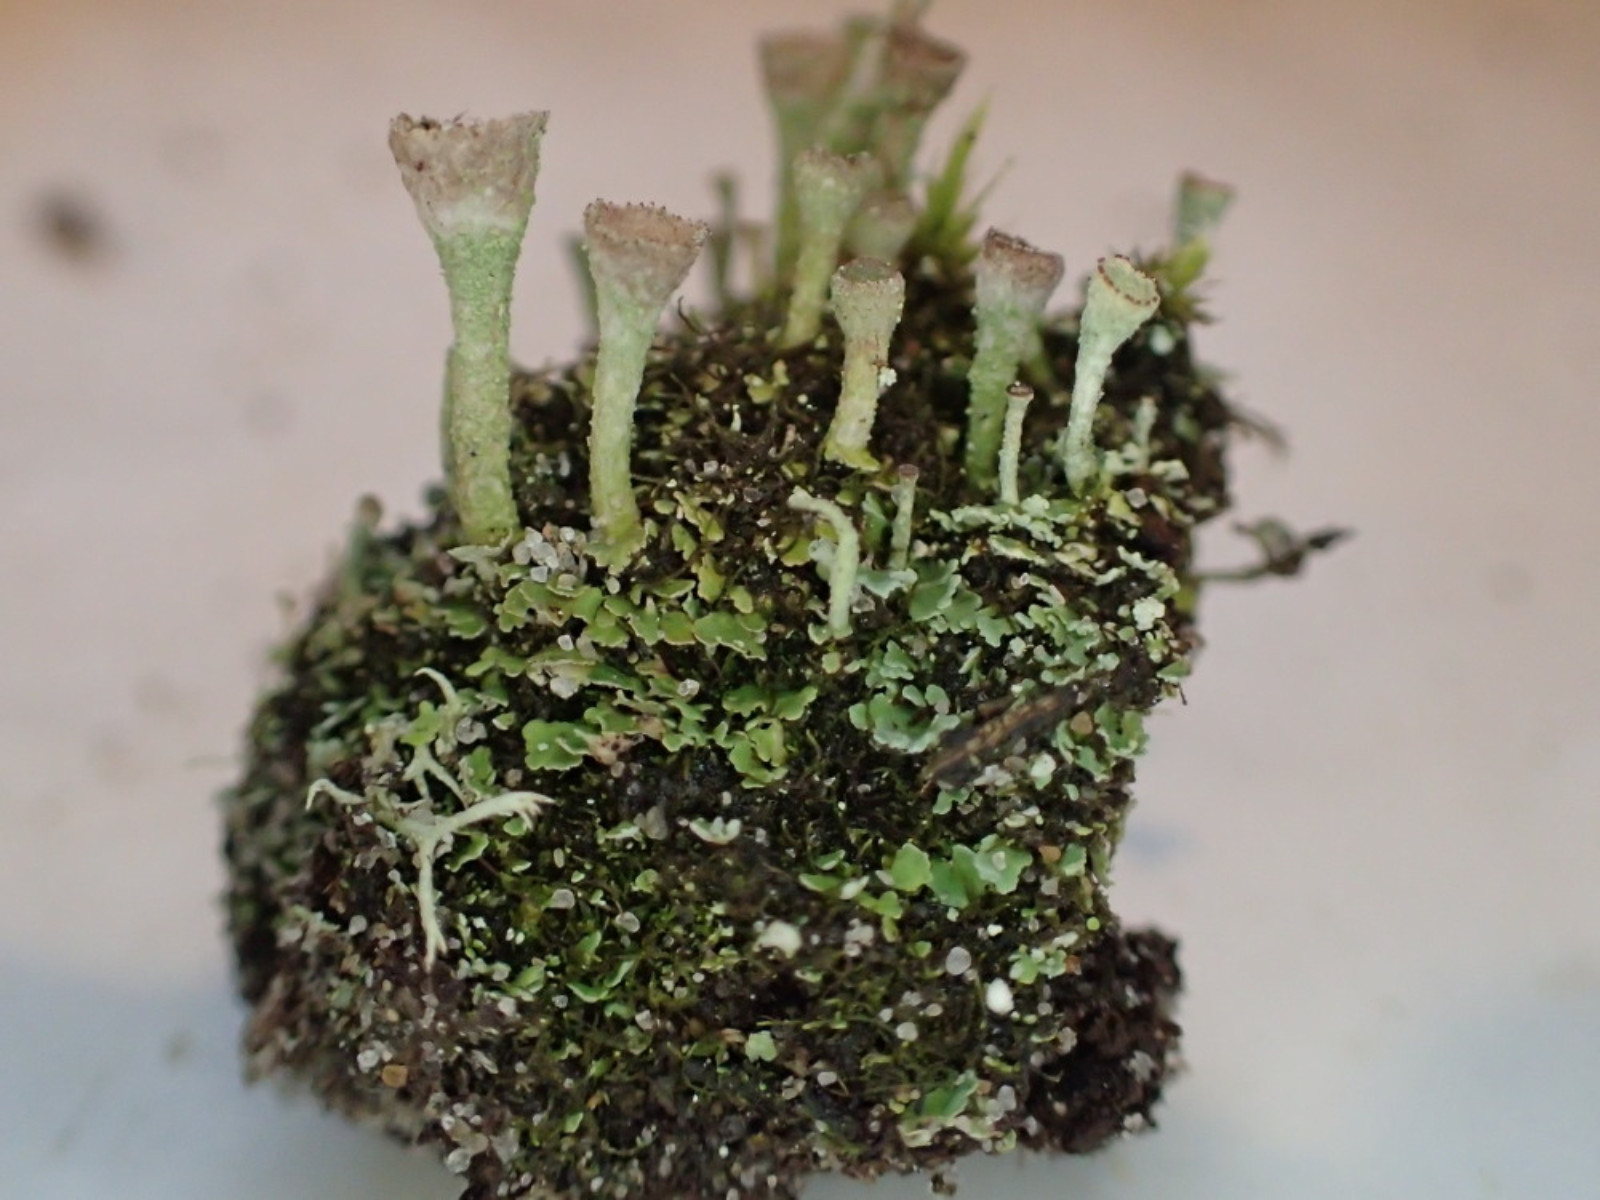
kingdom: Fungi
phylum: Ascomycota
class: Lecanoromycetes
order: Lecanorales
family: Cladoniaceae
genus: Cladonia
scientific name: Cladonia
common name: brungrøn bægerlav
